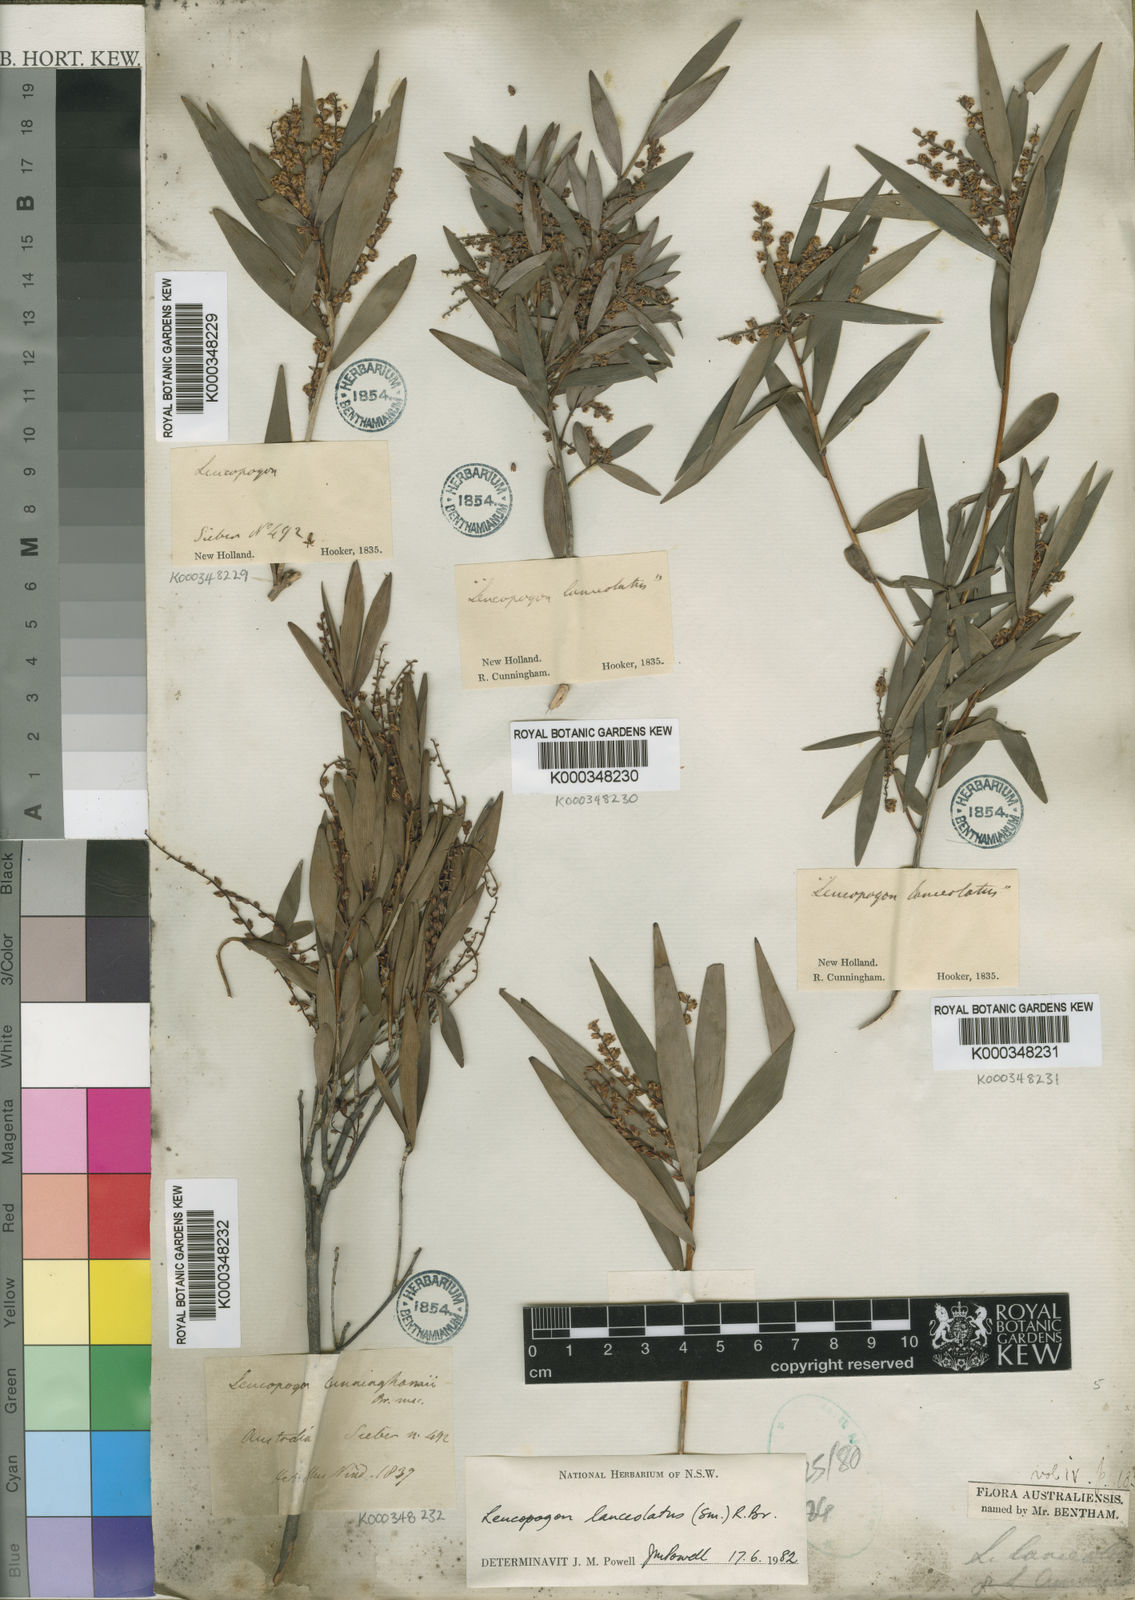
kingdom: Plantae
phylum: Tracheophyta
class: Magnoliopsida
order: Ericales
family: Ericaceae
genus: Leucopogon
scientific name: Leucopogon lanceolatus
